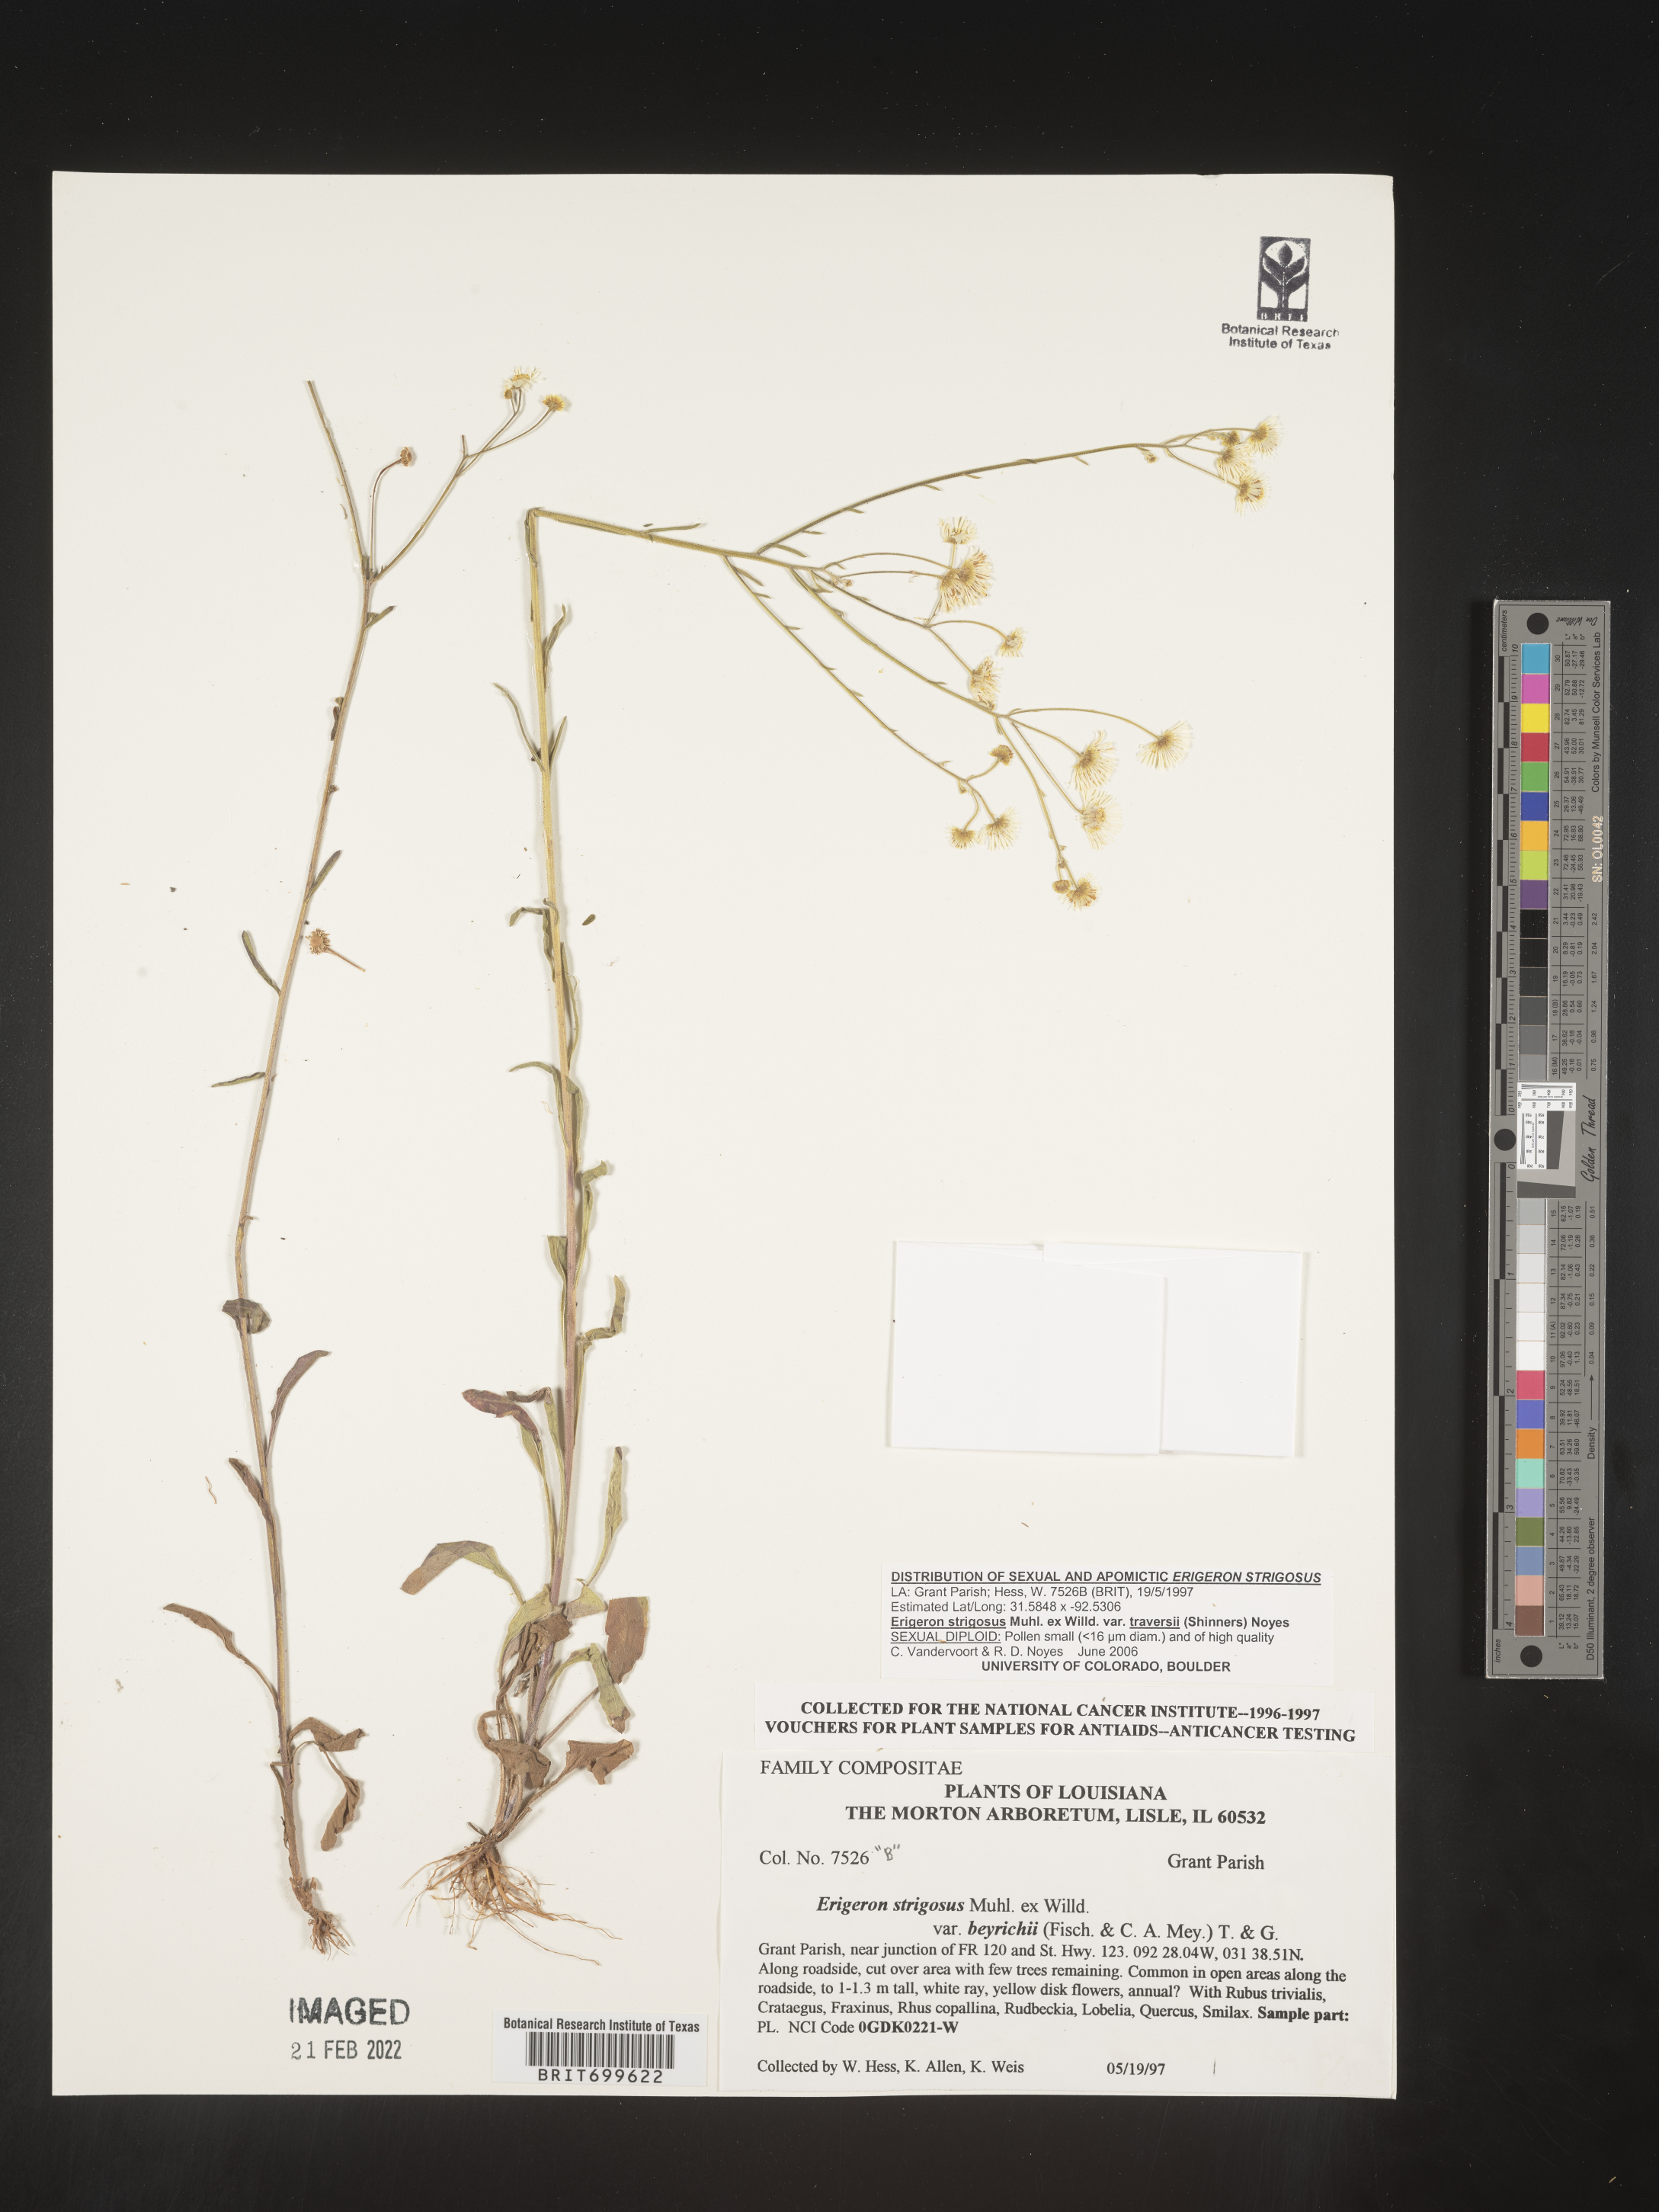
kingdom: Plantae
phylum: Tracheophyta
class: Magnoliopsida
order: Asterales
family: Asteraceae
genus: Erigeron
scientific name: Erigeron strigosus
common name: Common eastern fleabane
